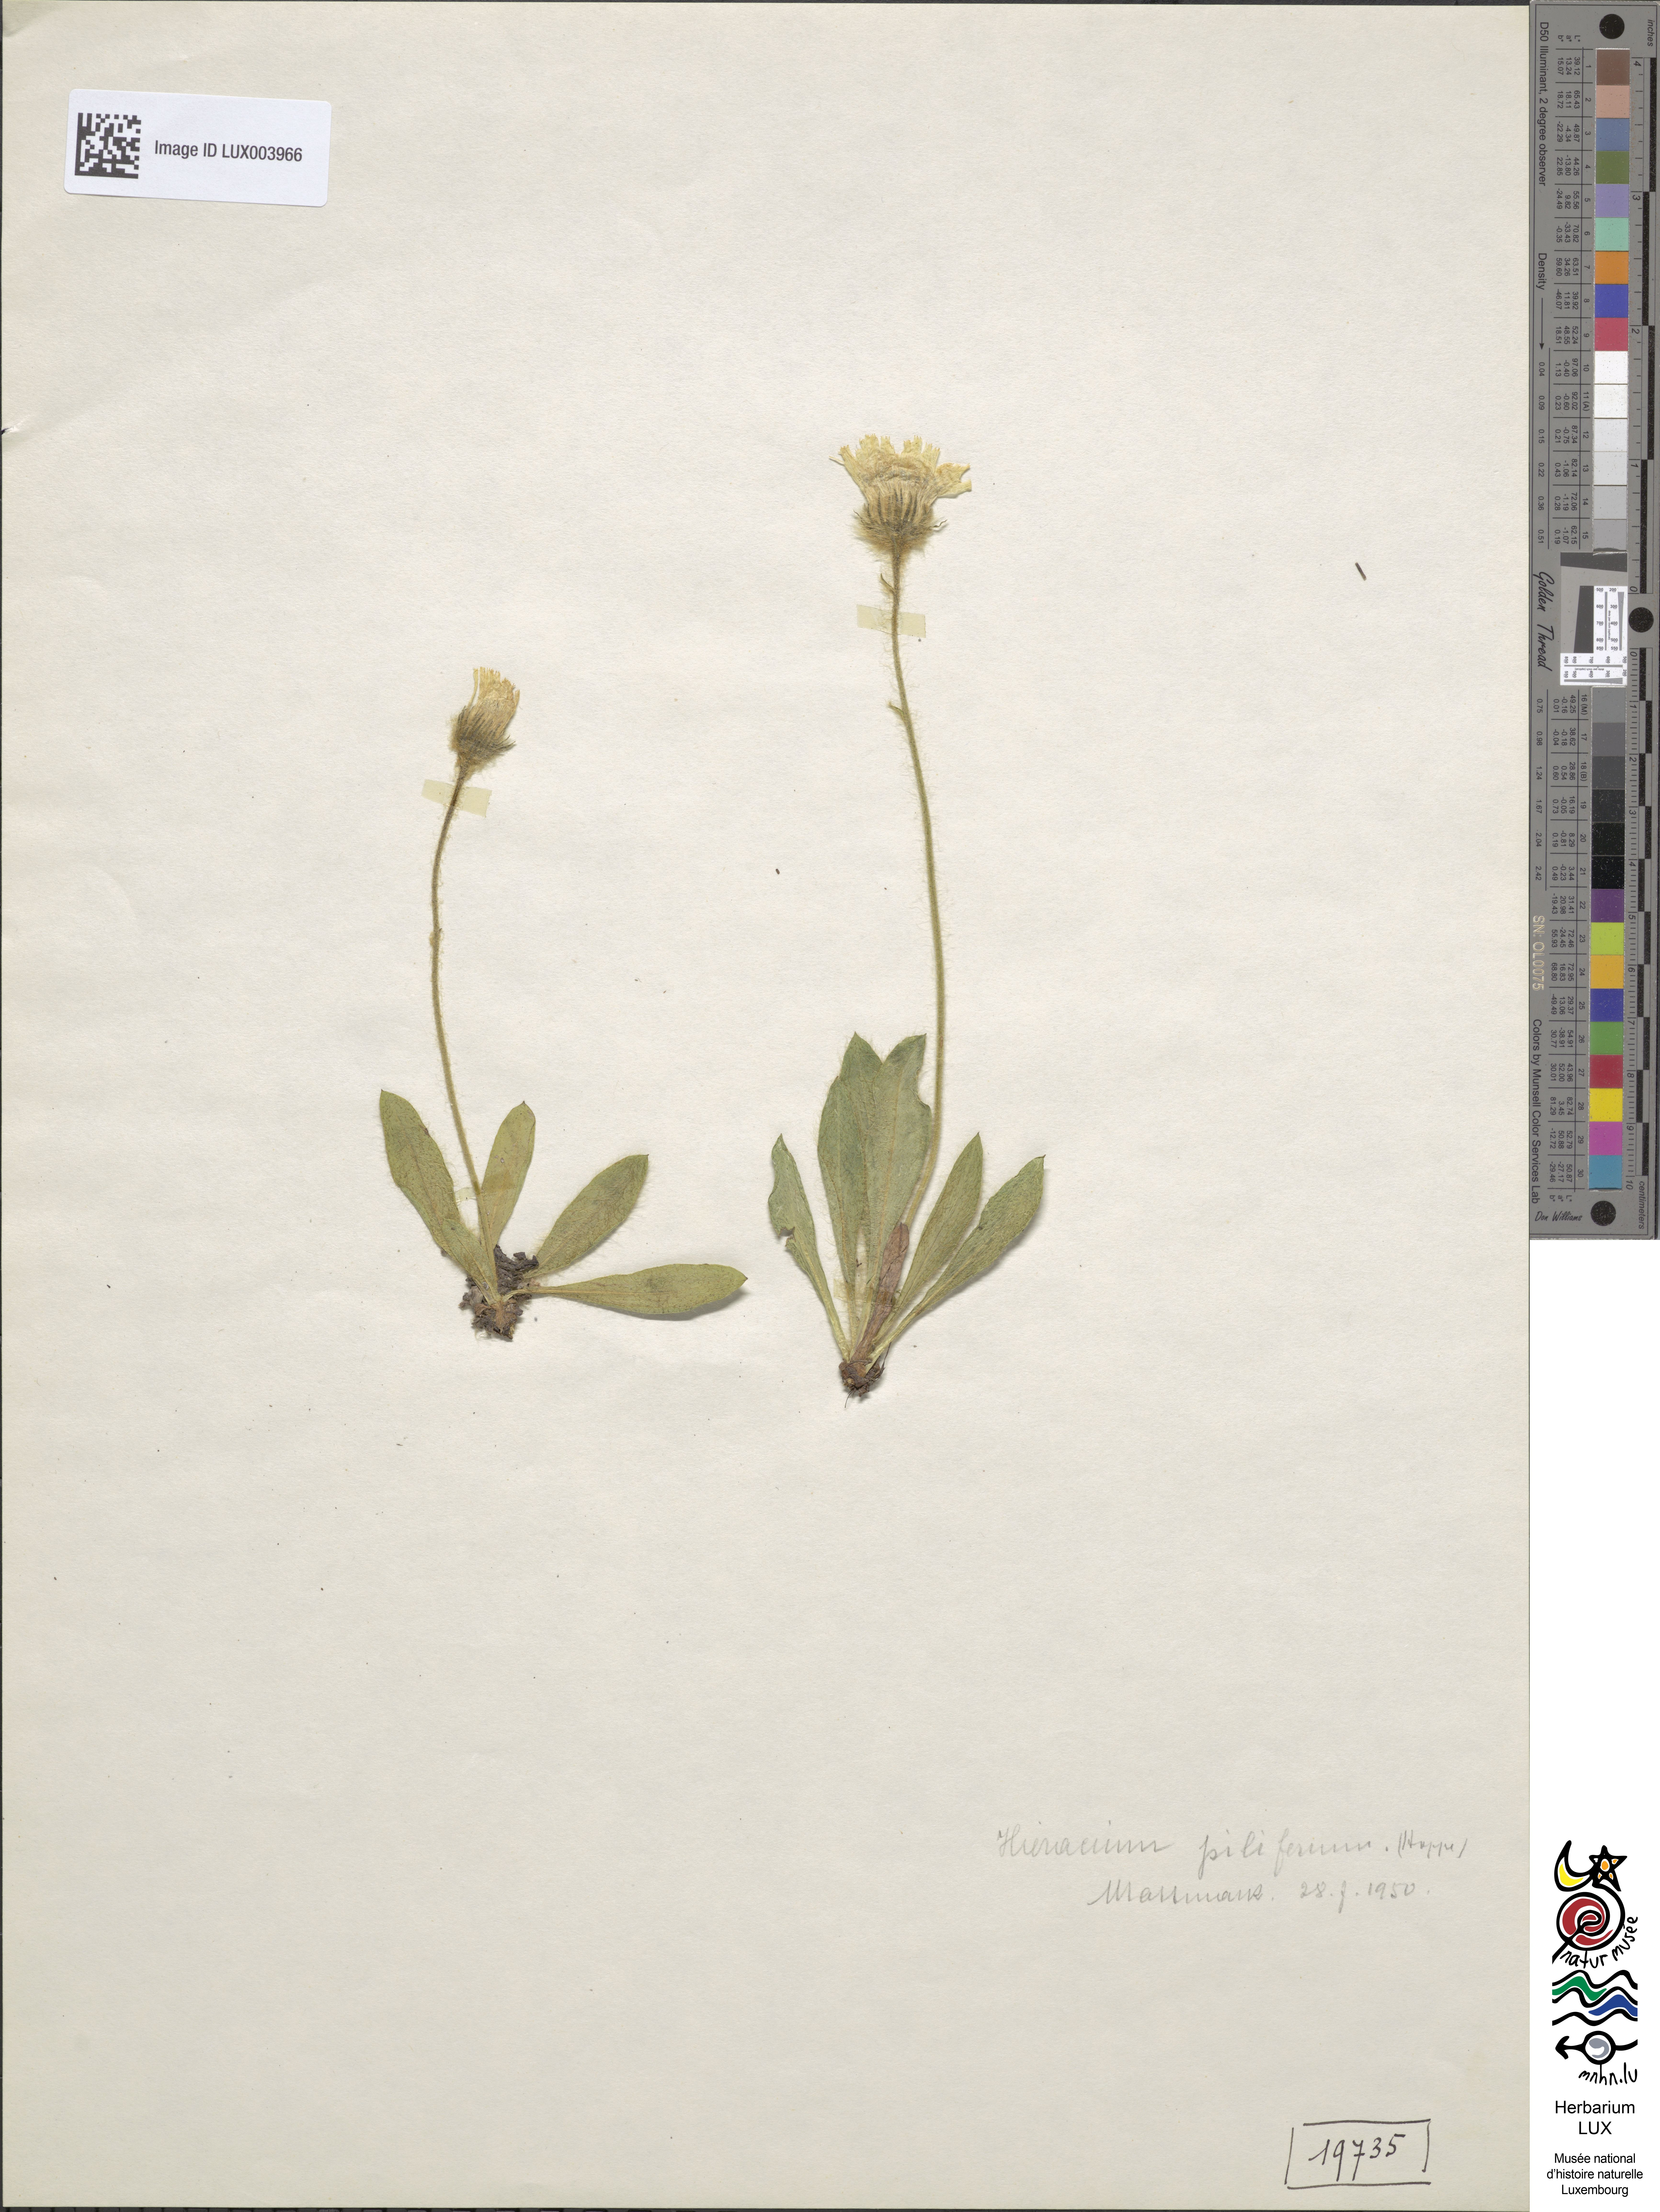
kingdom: Plantae
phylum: Tracheophyta
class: Magnoliopsida
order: Asterales
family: Asteraceae
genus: Hieracium
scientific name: Hieracium piliferum
